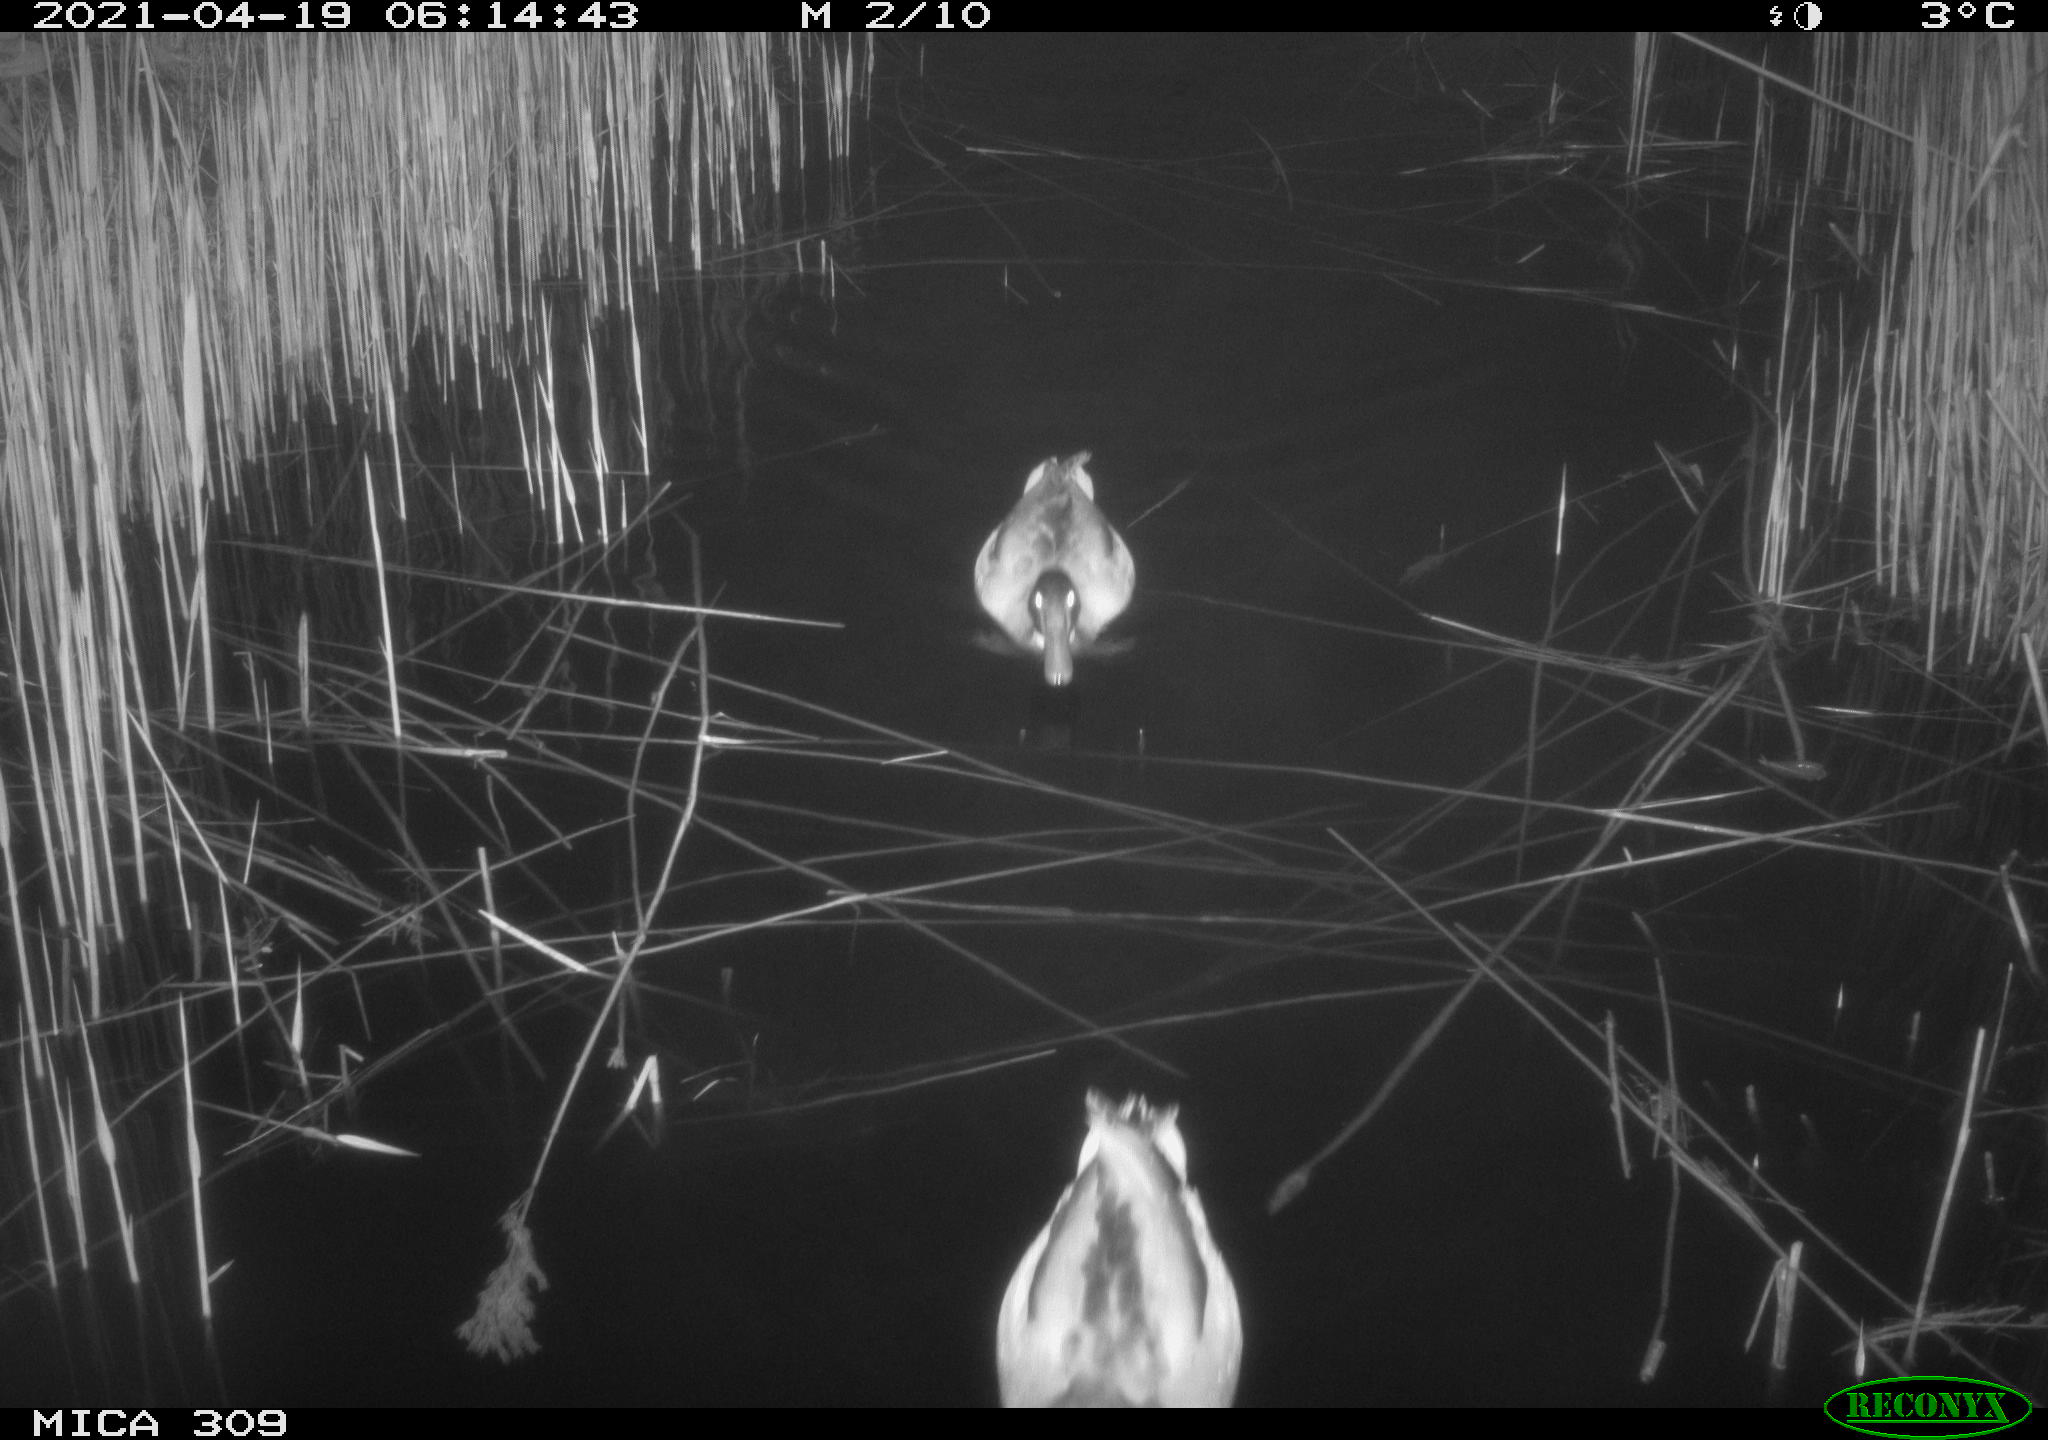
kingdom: Animalia
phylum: Chordata
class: Aves
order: Anseriformes
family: Anatidae
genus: Anas
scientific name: Anas platyrhynchos
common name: Mallard
